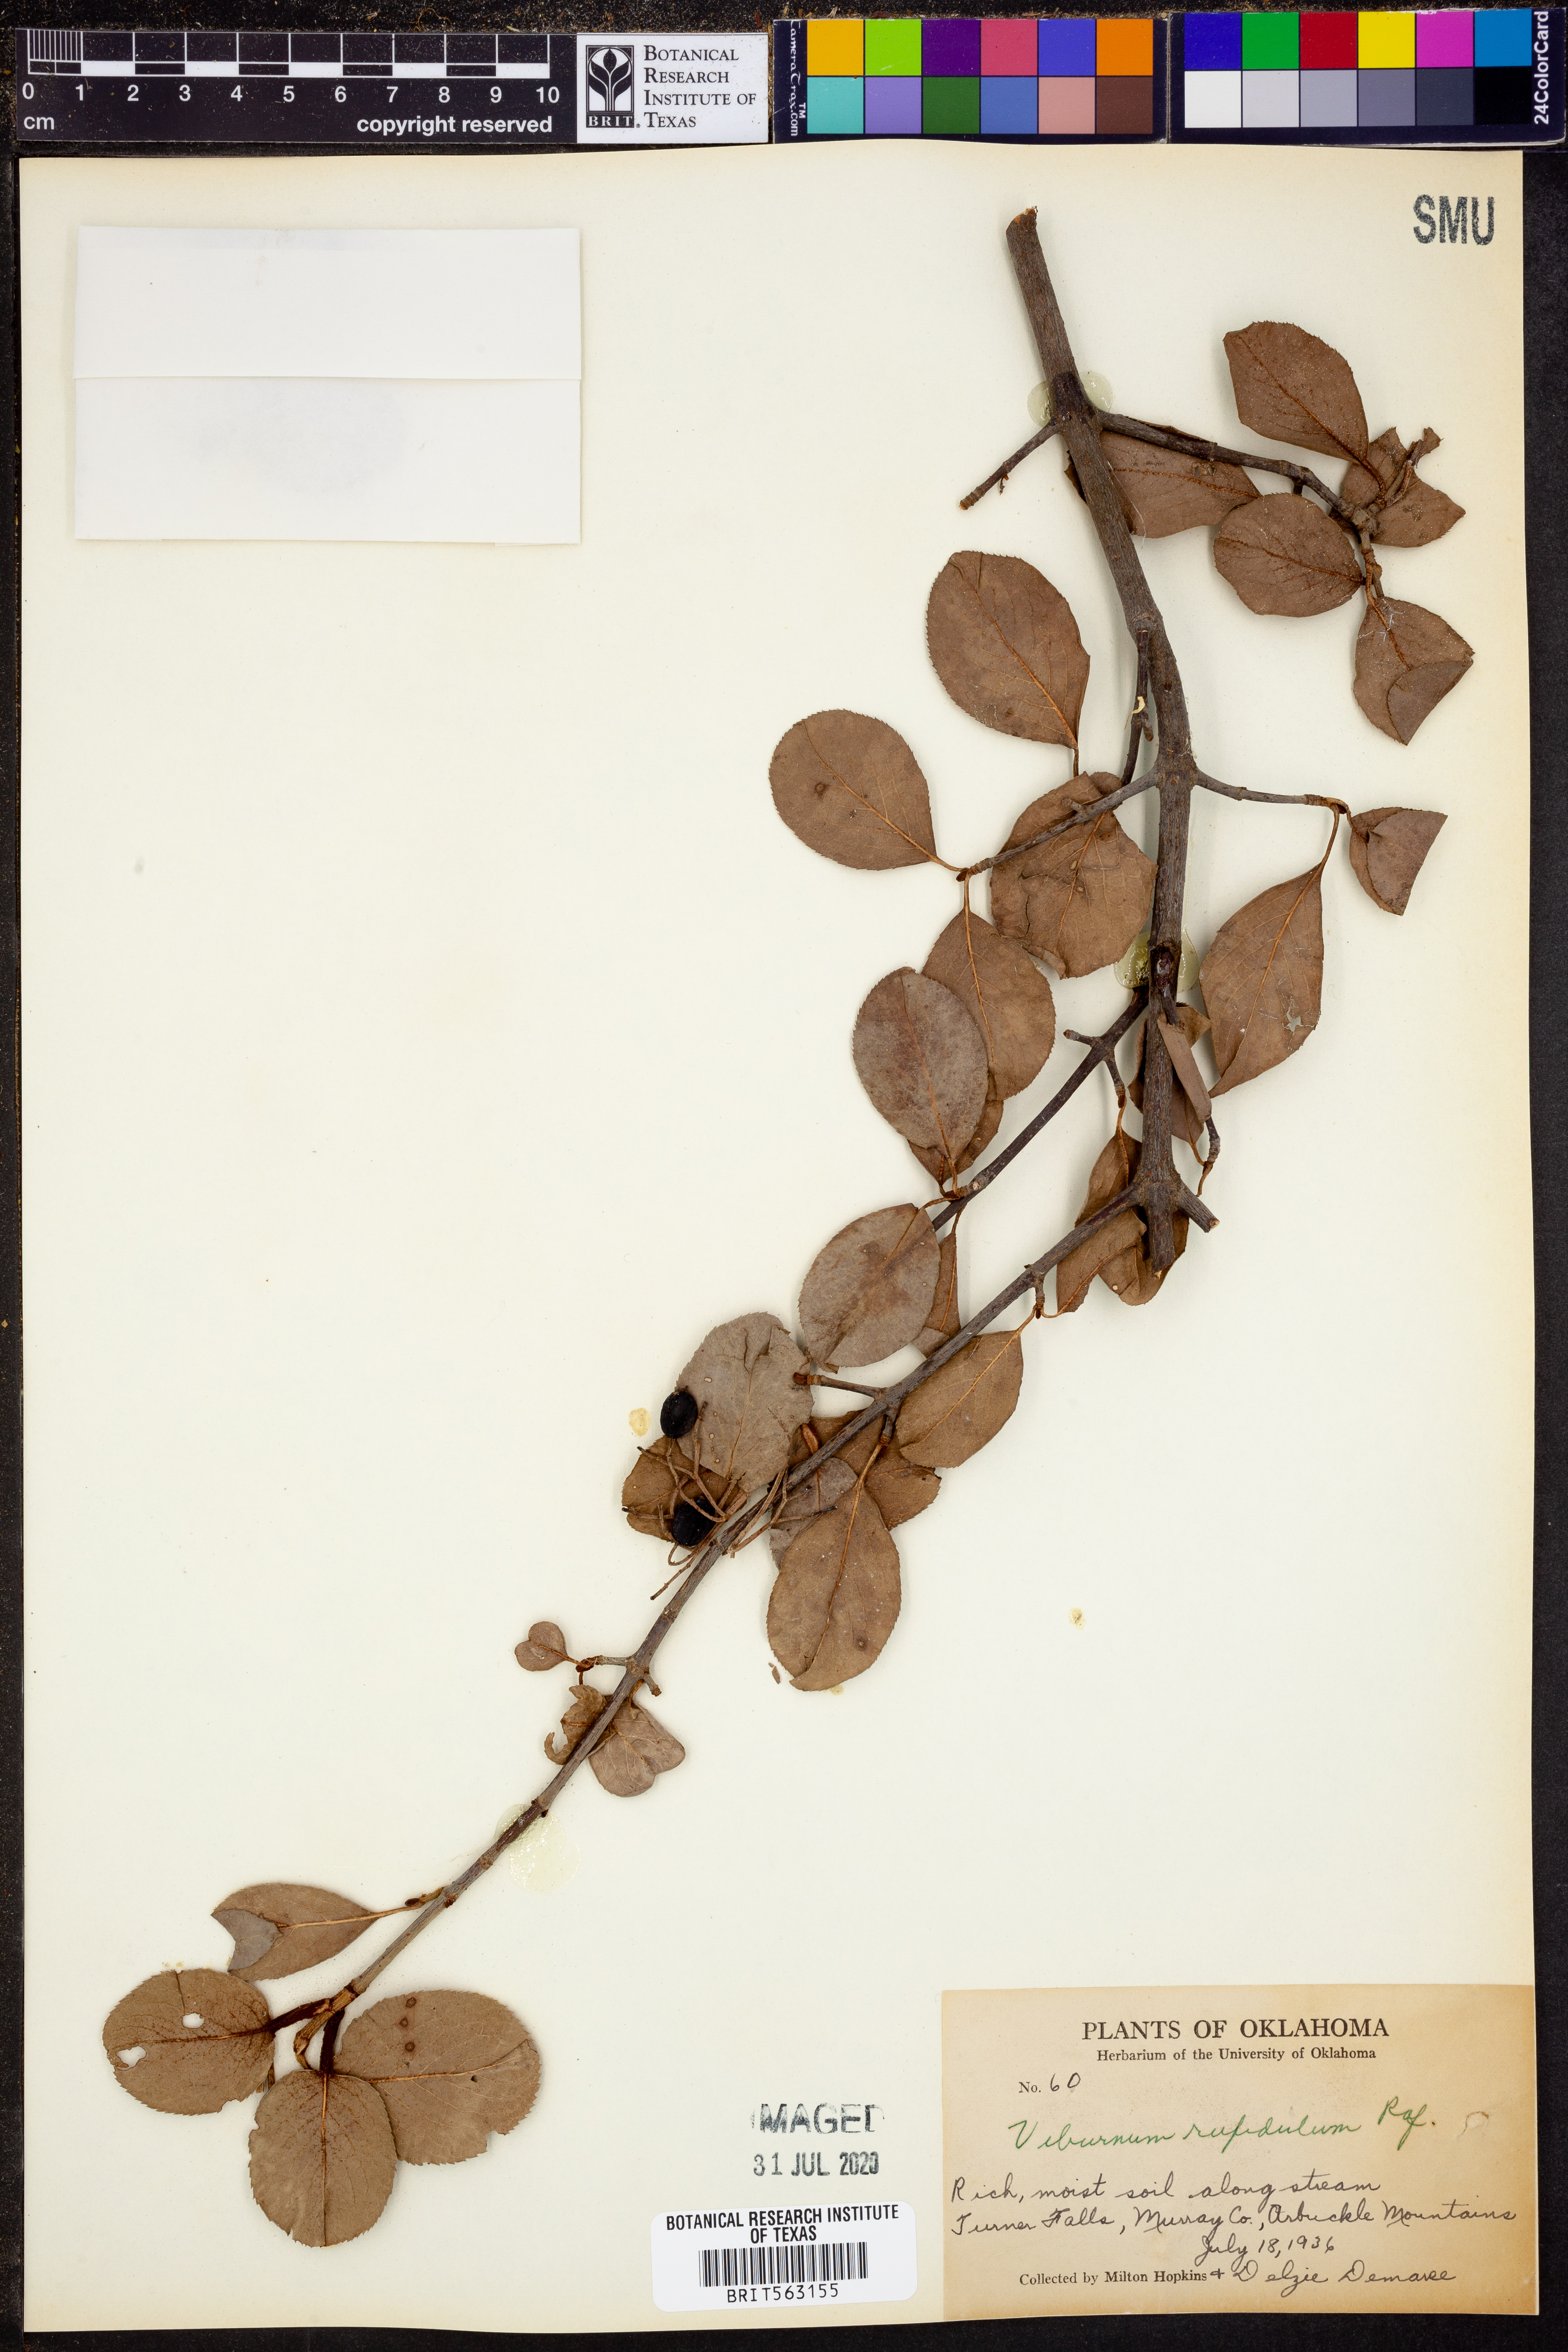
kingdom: Plantae
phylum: Tracheophyta
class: Magnoliopsida
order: Dipsacales
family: Viburnaceae
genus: Viburnum
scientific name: Viburnum rufidulum
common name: Blue haw
